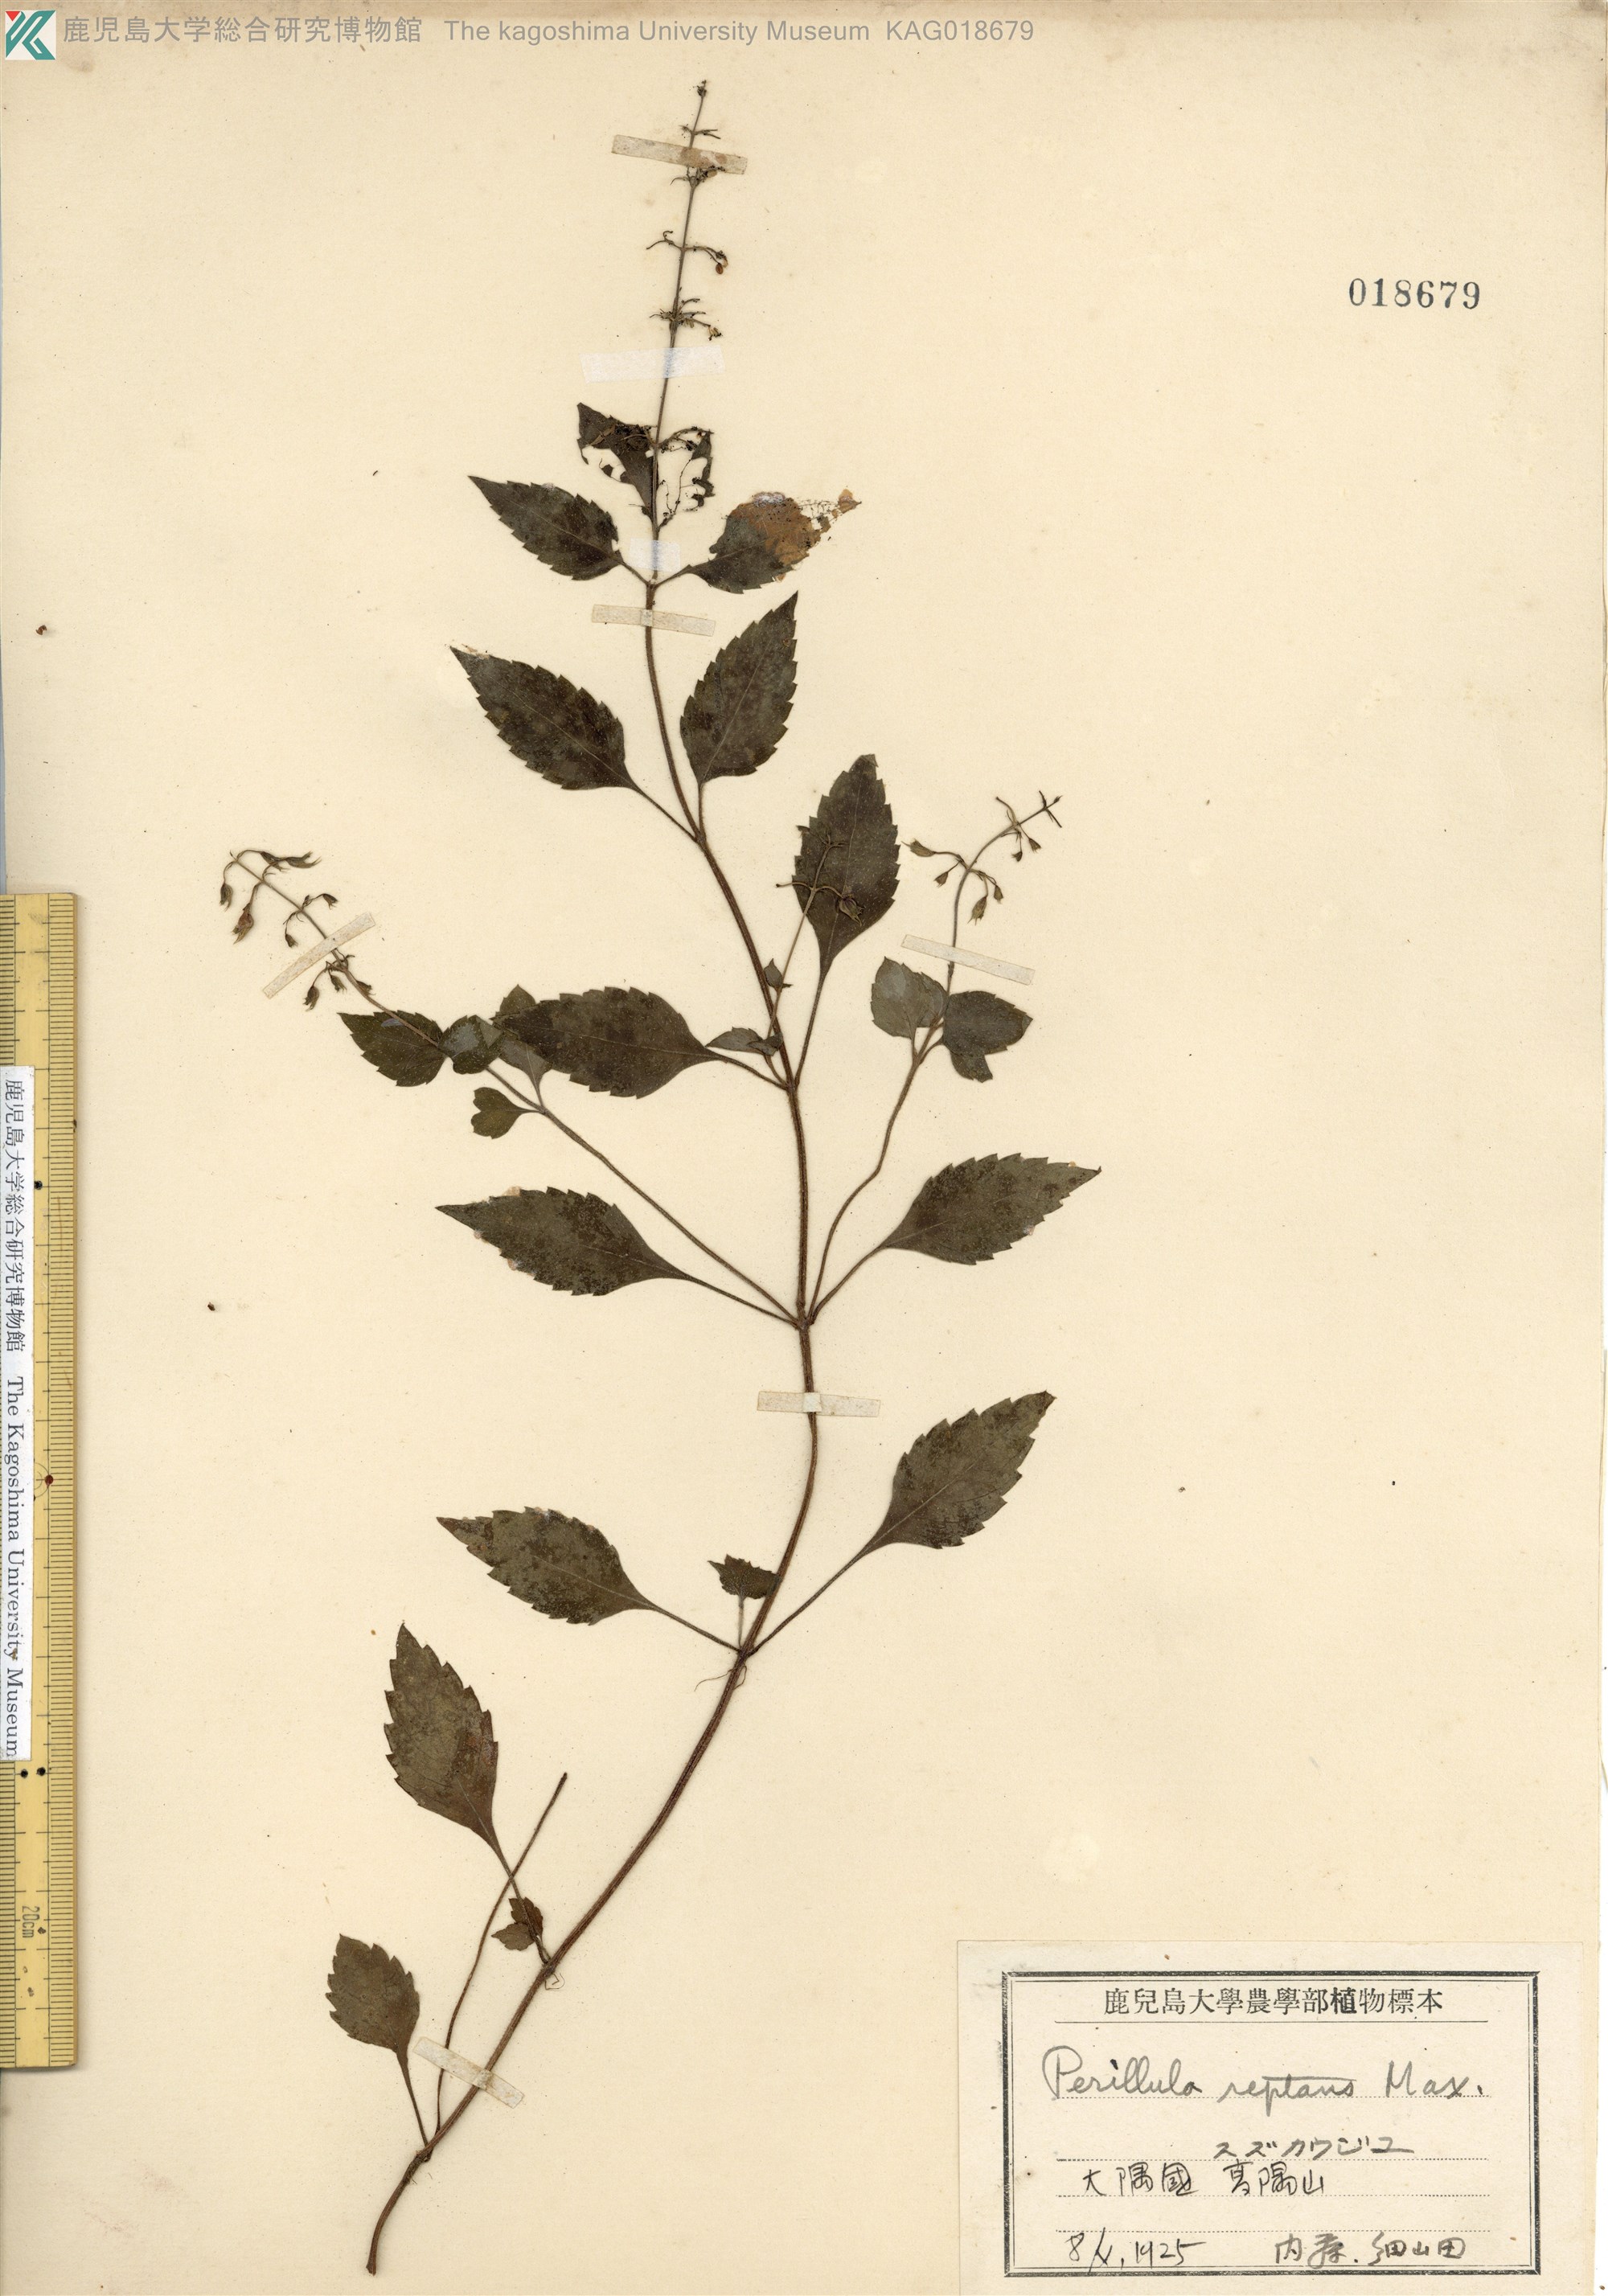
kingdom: Plantae
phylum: Tracheophyta
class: Magnoliopsida
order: Lamiales
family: Lamiaceae
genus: Perillula
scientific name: Perillula reptans
